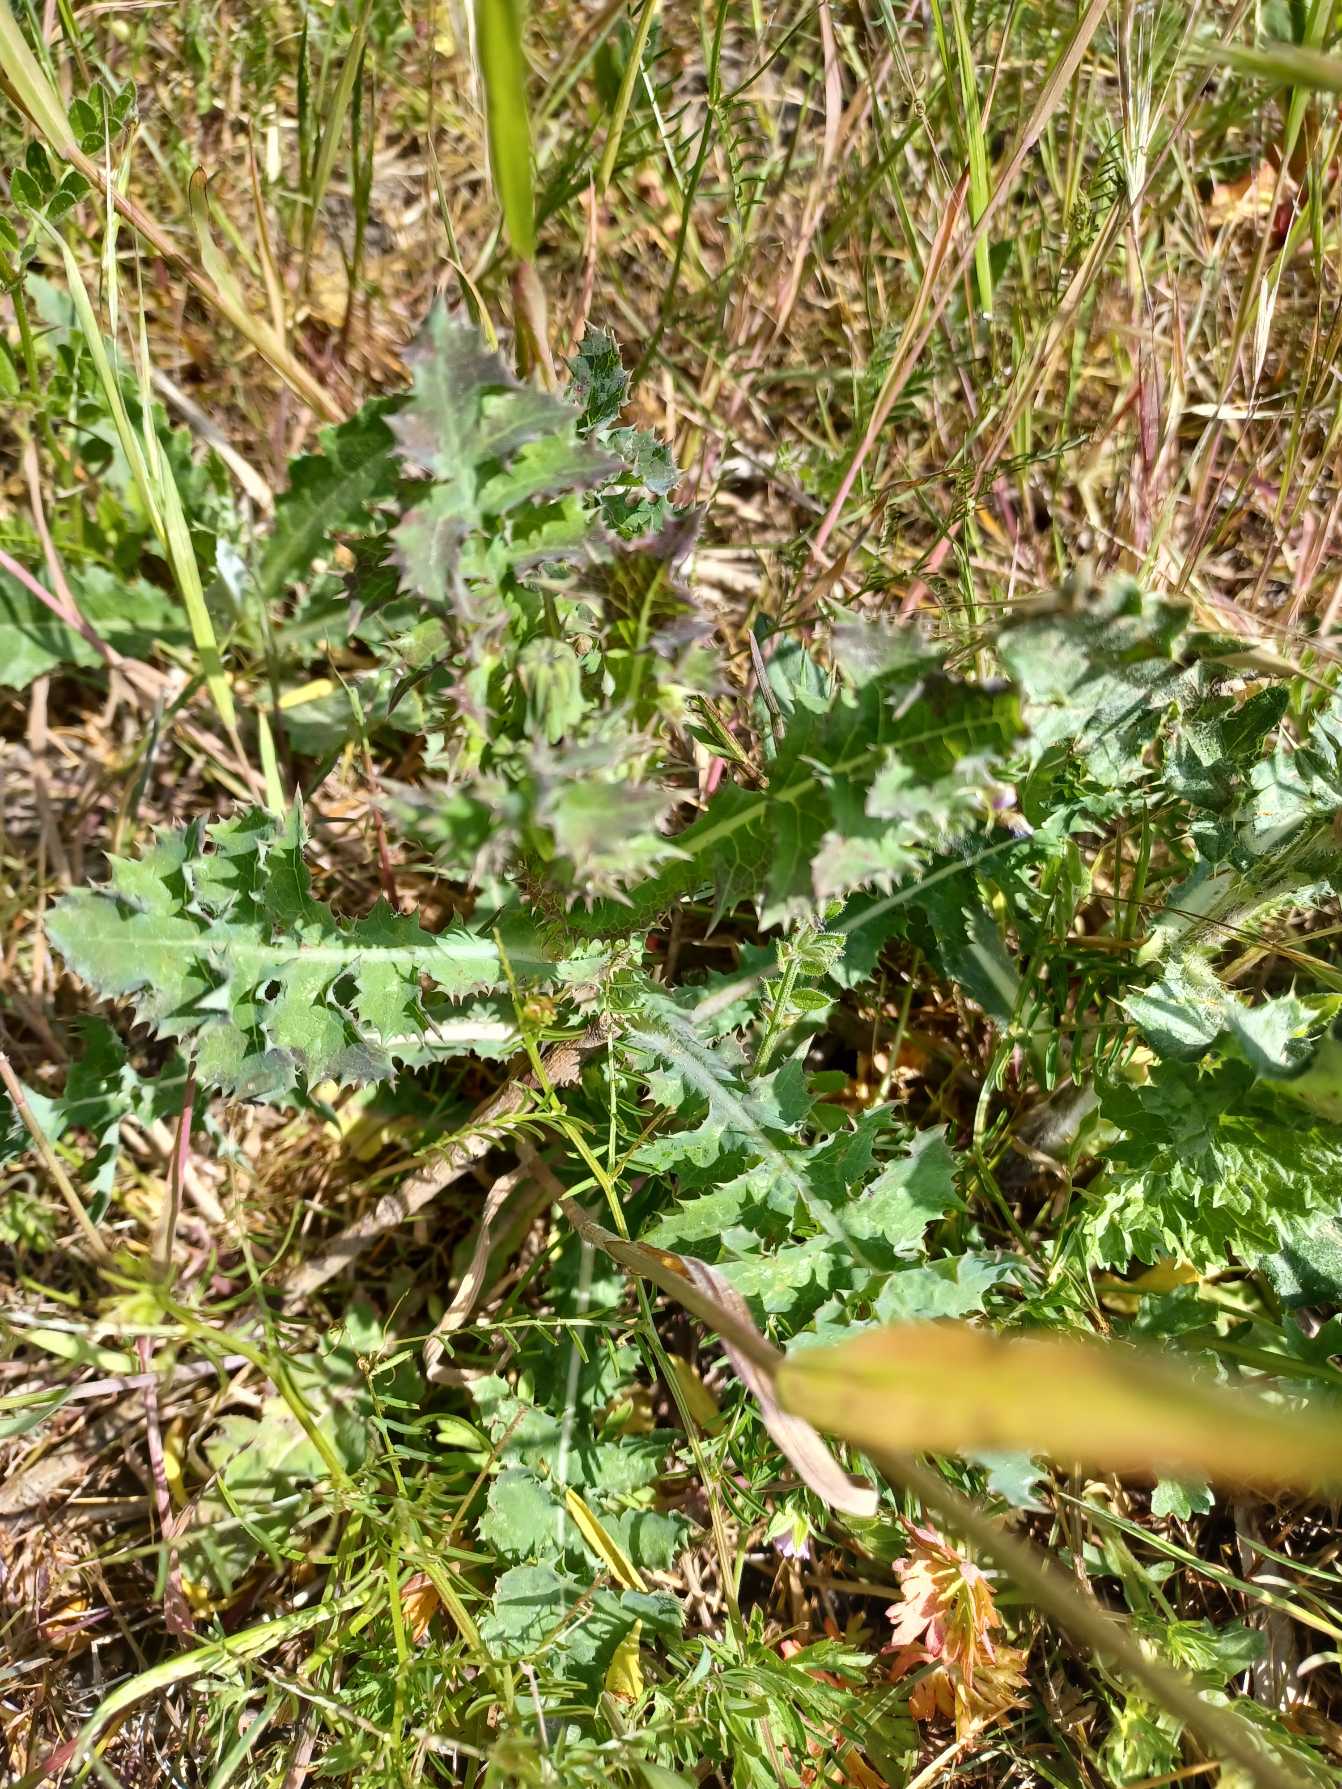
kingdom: Plantae
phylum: Tracheophyta
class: Magnoliopsida
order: Asterales
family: Asteraceae
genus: Sonchus
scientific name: Sonchus arvensis
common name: Ager-svinemælk
